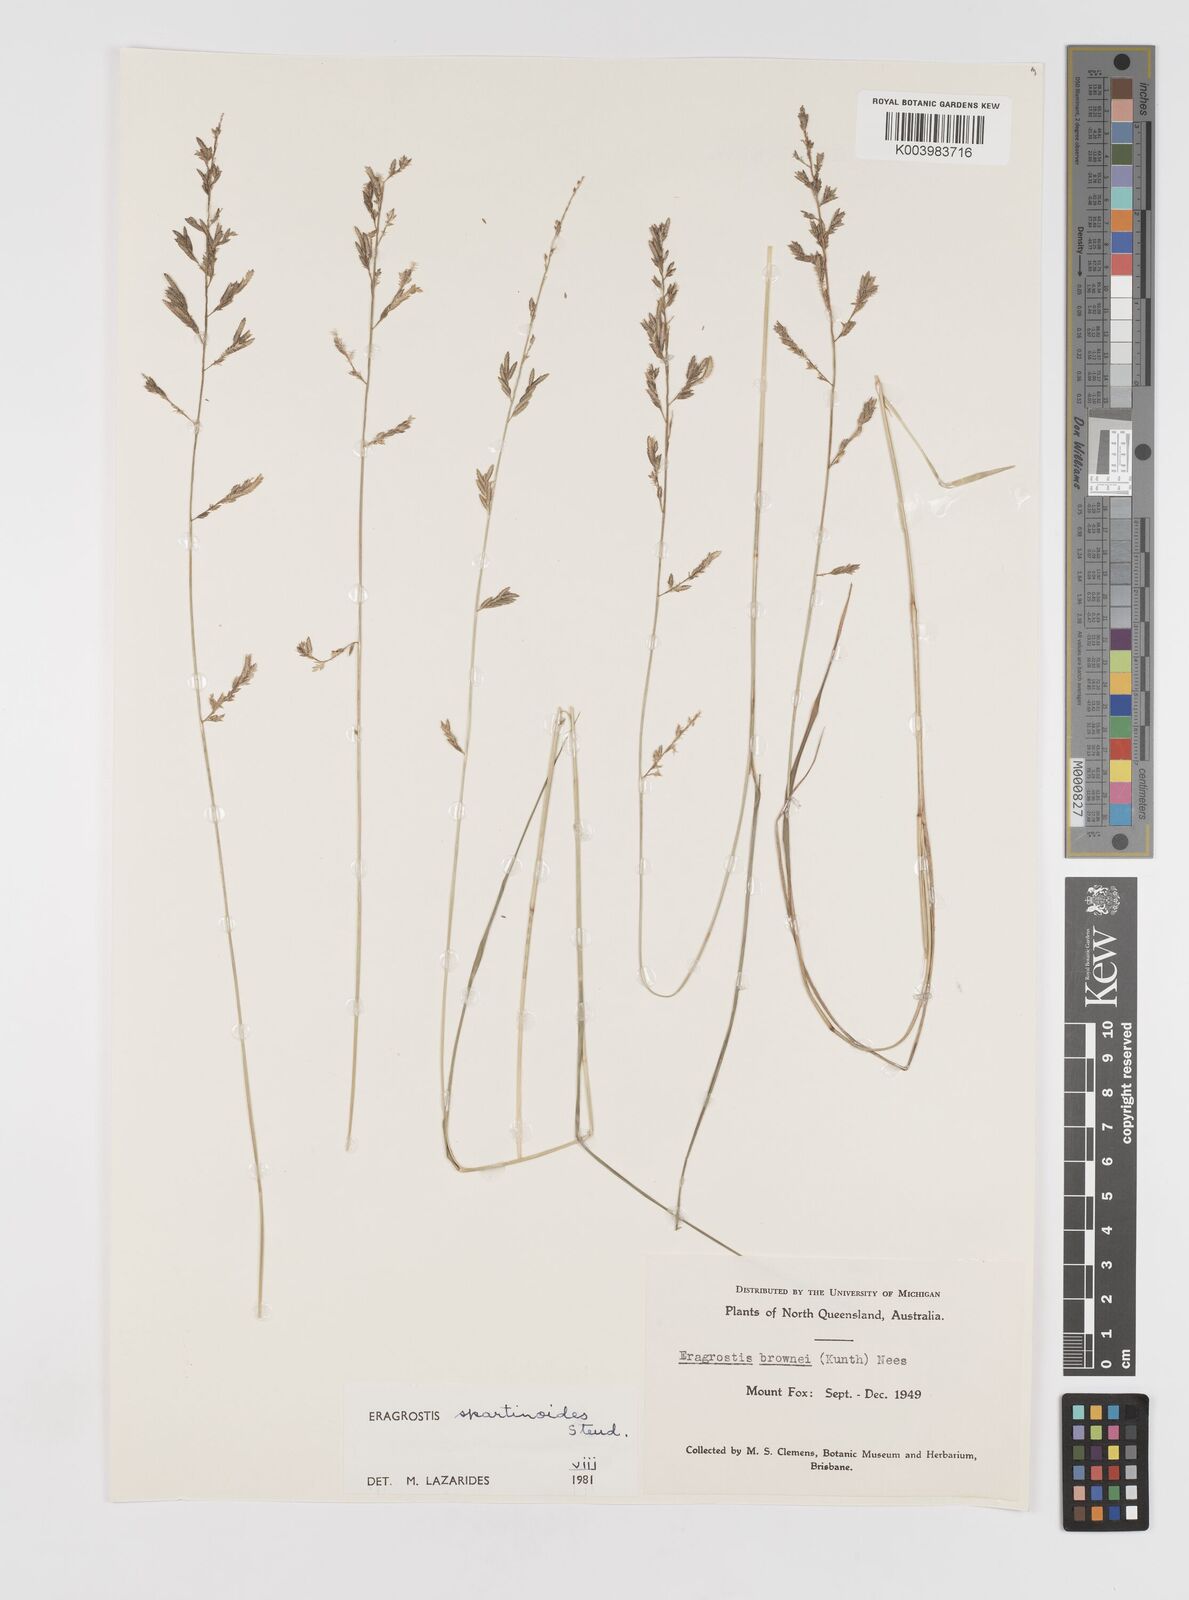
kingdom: Plantae
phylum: Tracheophyta
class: Liliopsida
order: Poales
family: Poaceae
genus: Eragrostis
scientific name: Eragrostis brownii
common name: Lovegrass
